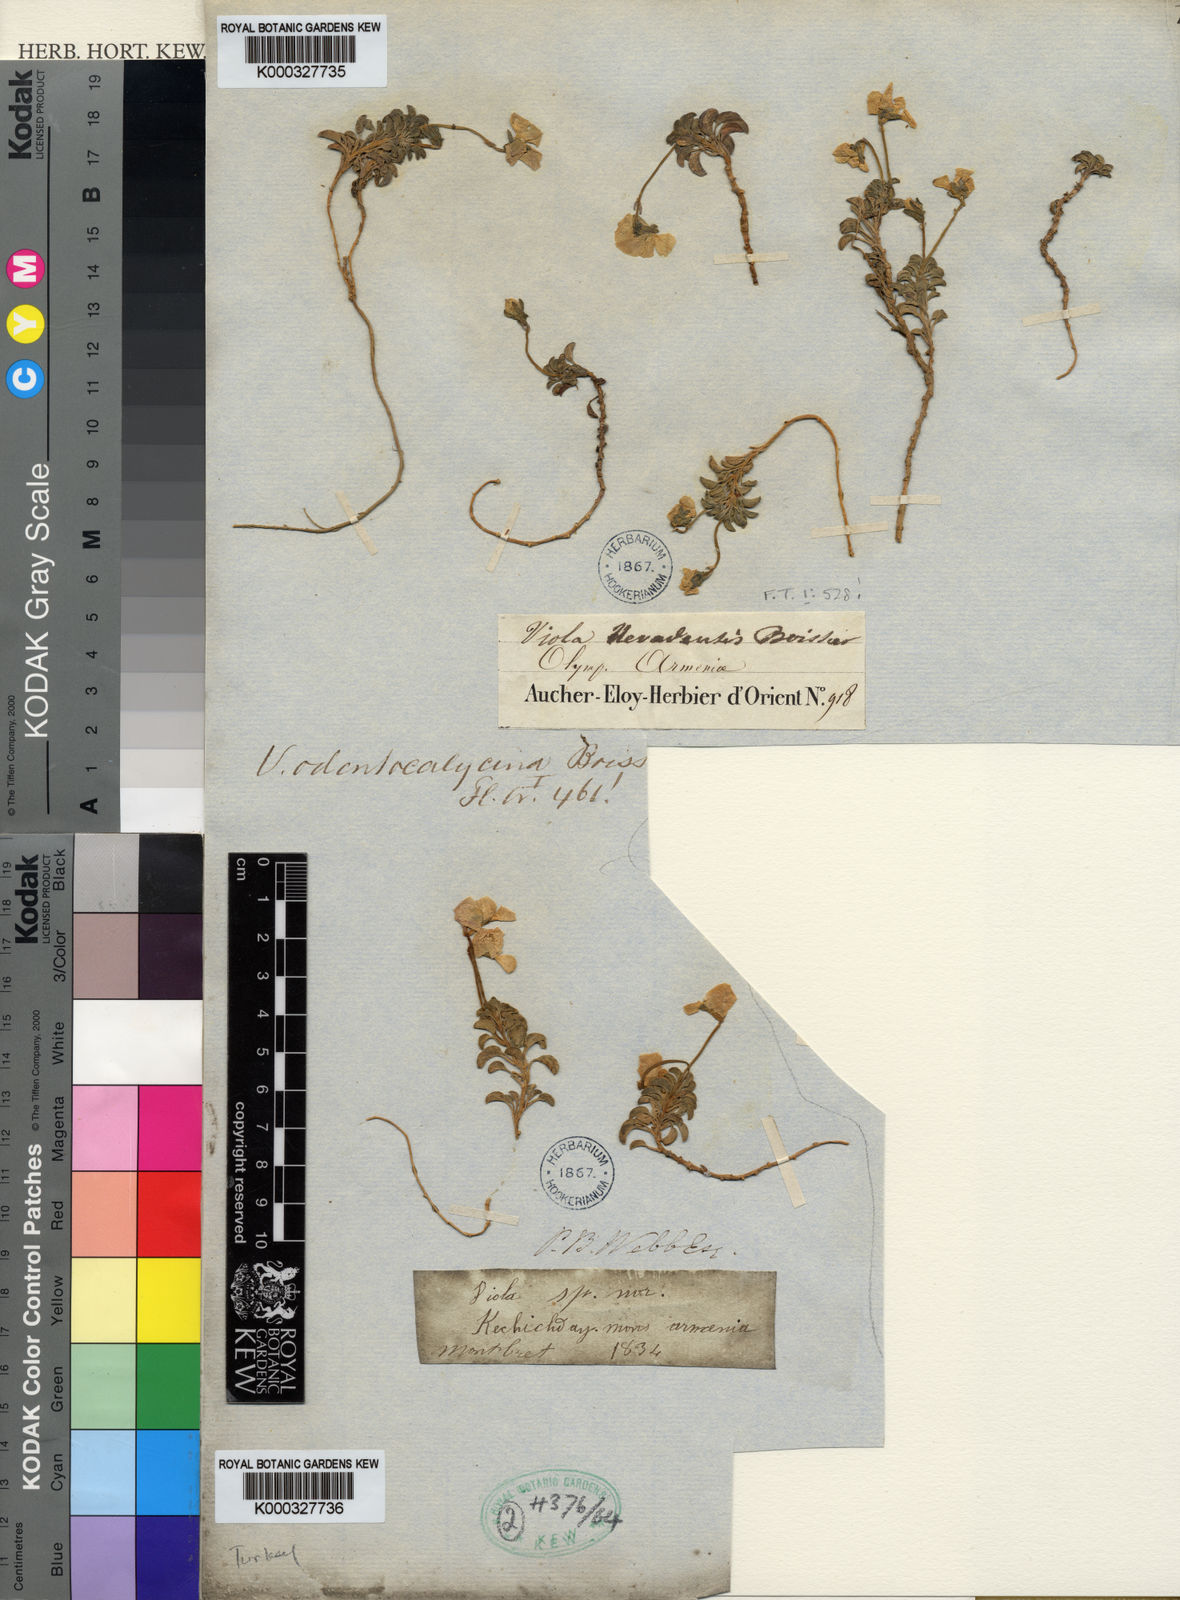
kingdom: Plantae
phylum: Tracheophyta
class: Magnoliopsida
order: Malpighiales
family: Violaceae
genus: Viola
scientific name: Viola odontocalycina
